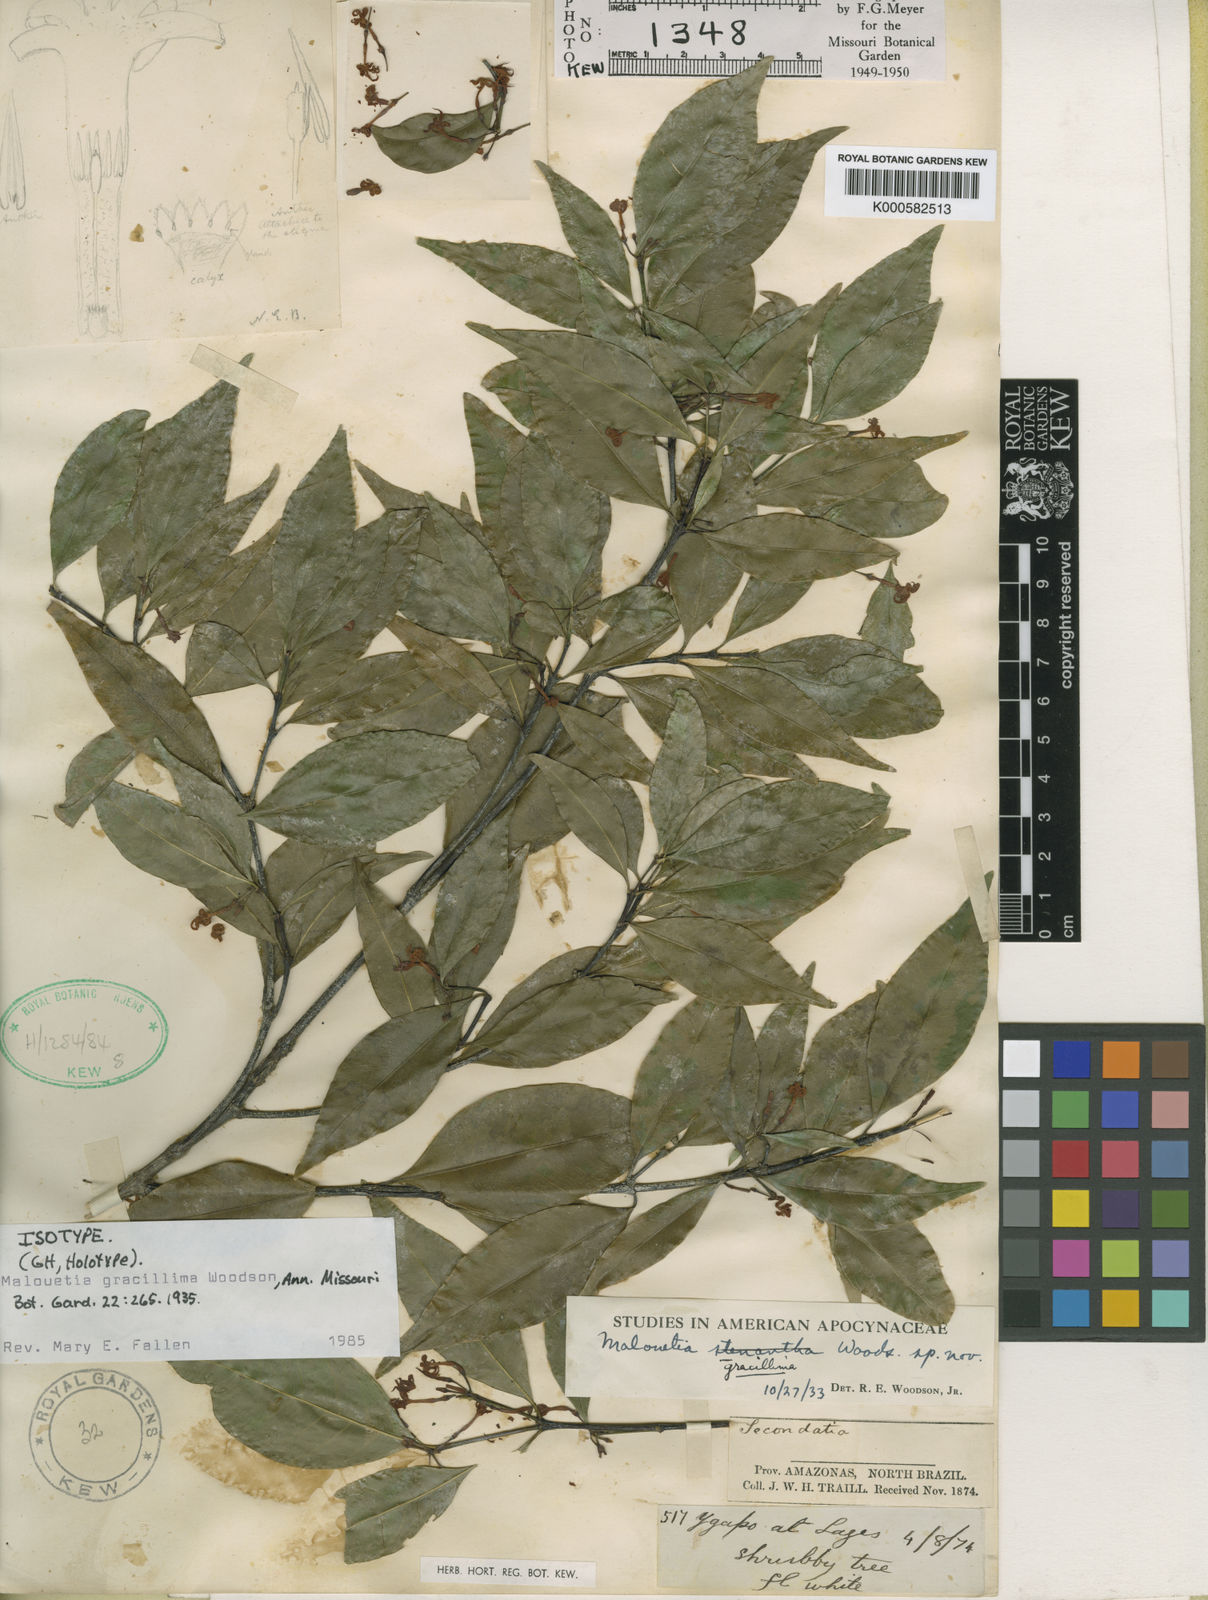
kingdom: Plantae
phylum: Tracheophyta
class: Magnoliopsida
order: Gentianales
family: Apocynaceae
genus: Malouetia
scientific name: Malouetia gracillima
